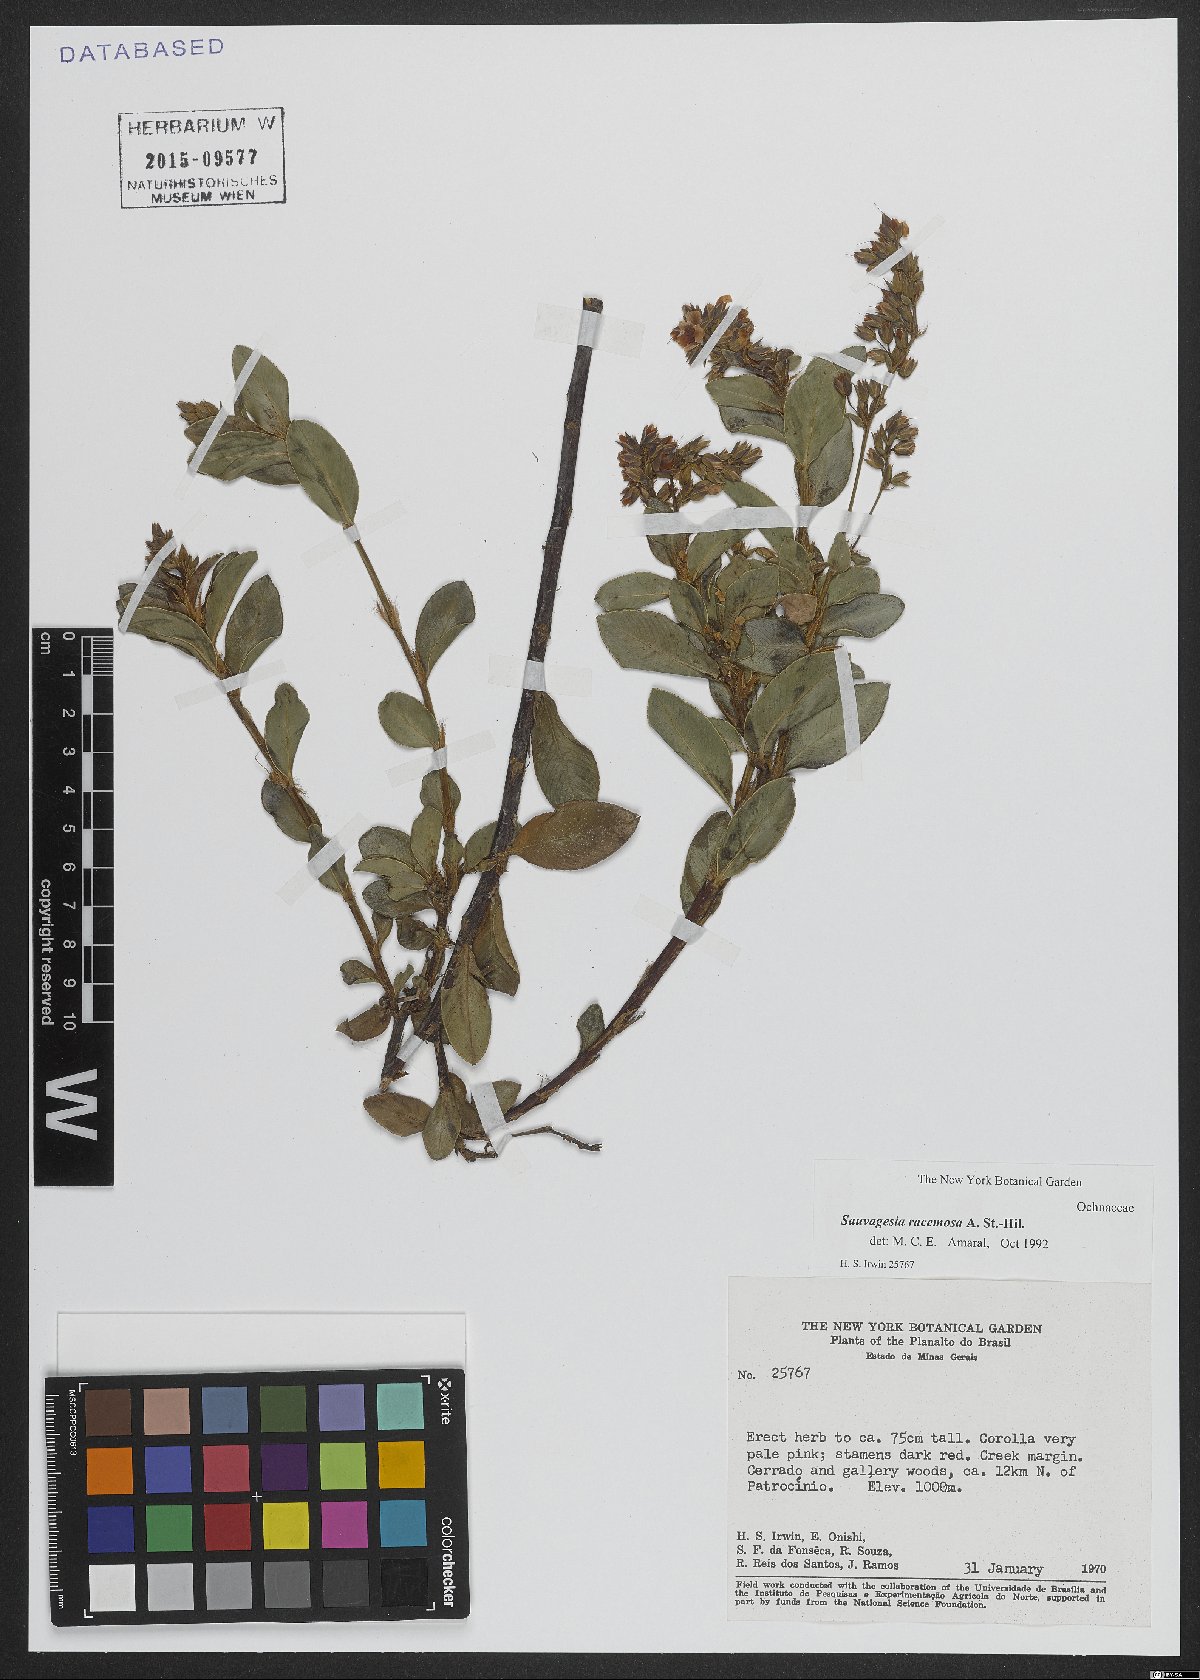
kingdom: Plantae
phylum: Tracheophyta
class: Magnoliopsida
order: Malpighiales
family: Ochnaceae
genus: Sauvagesia
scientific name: Sauvagesia racemosa
